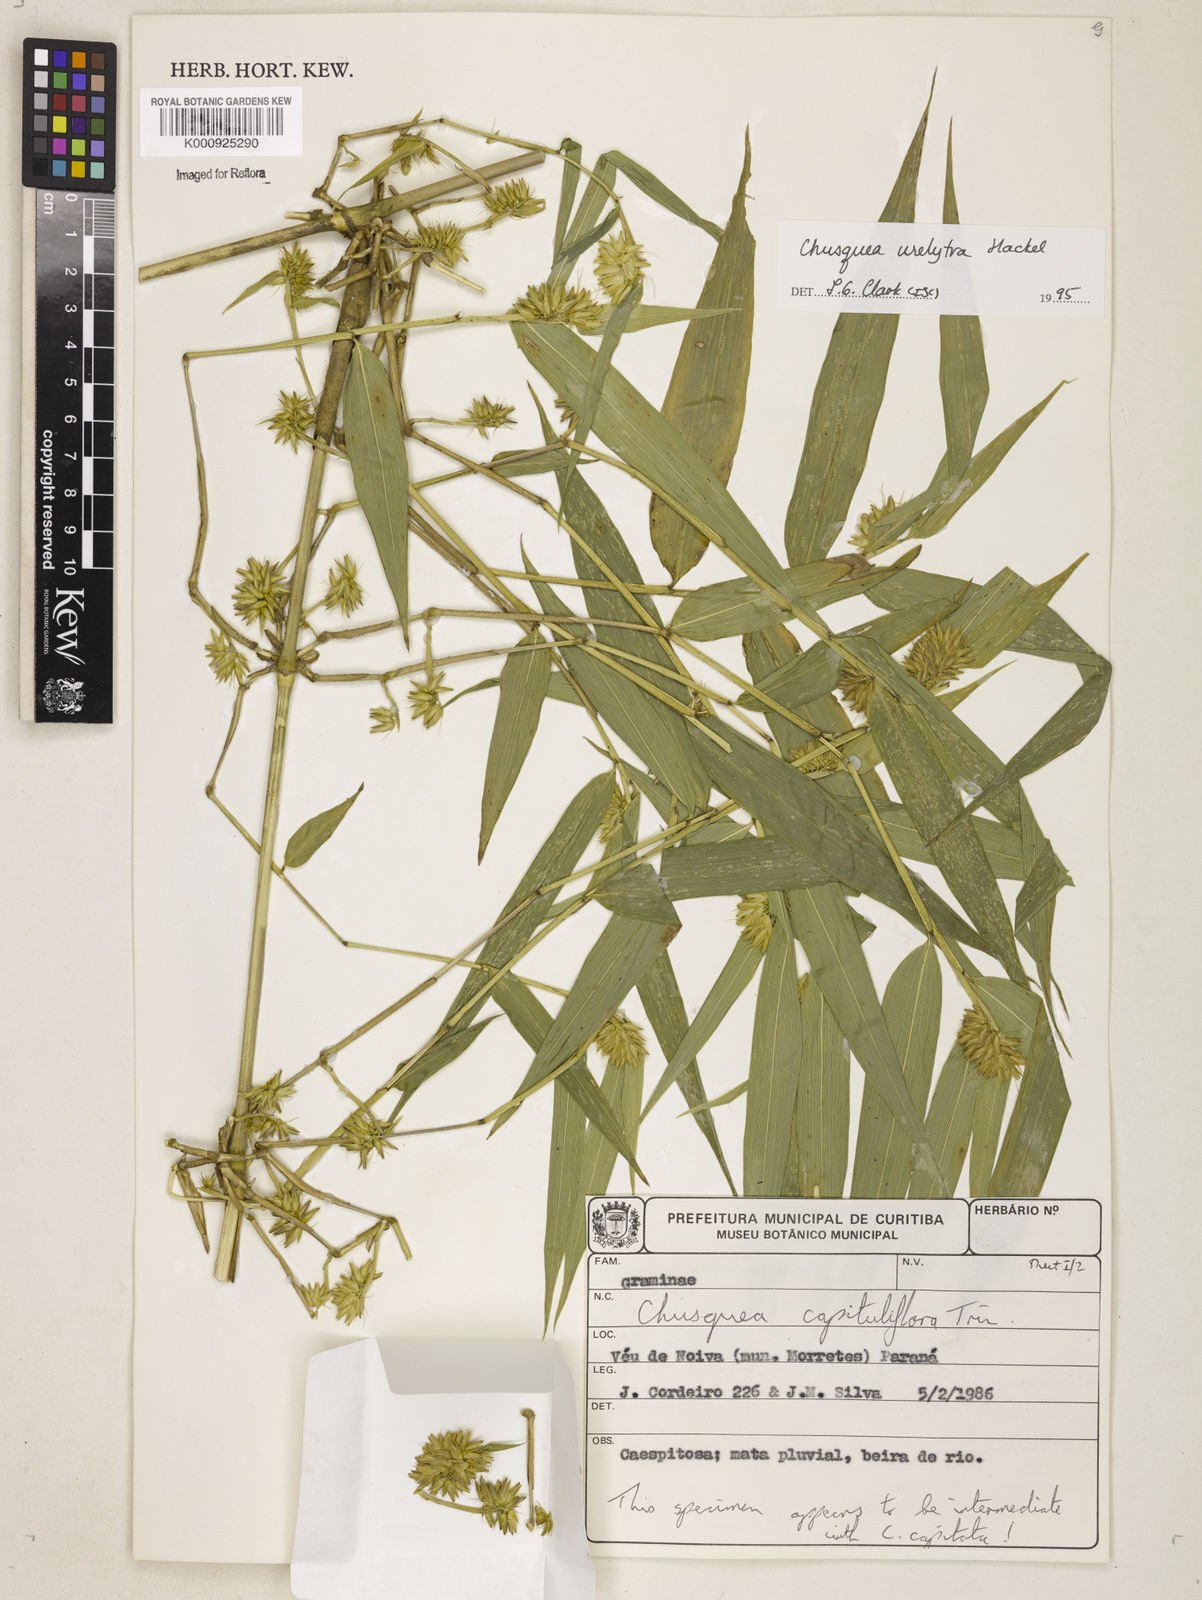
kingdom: Plantae
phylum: Tracheophyta
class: Liliopsida
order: Poales
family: Poaceae
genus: Chusquea
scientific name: Chusquea urelytra
